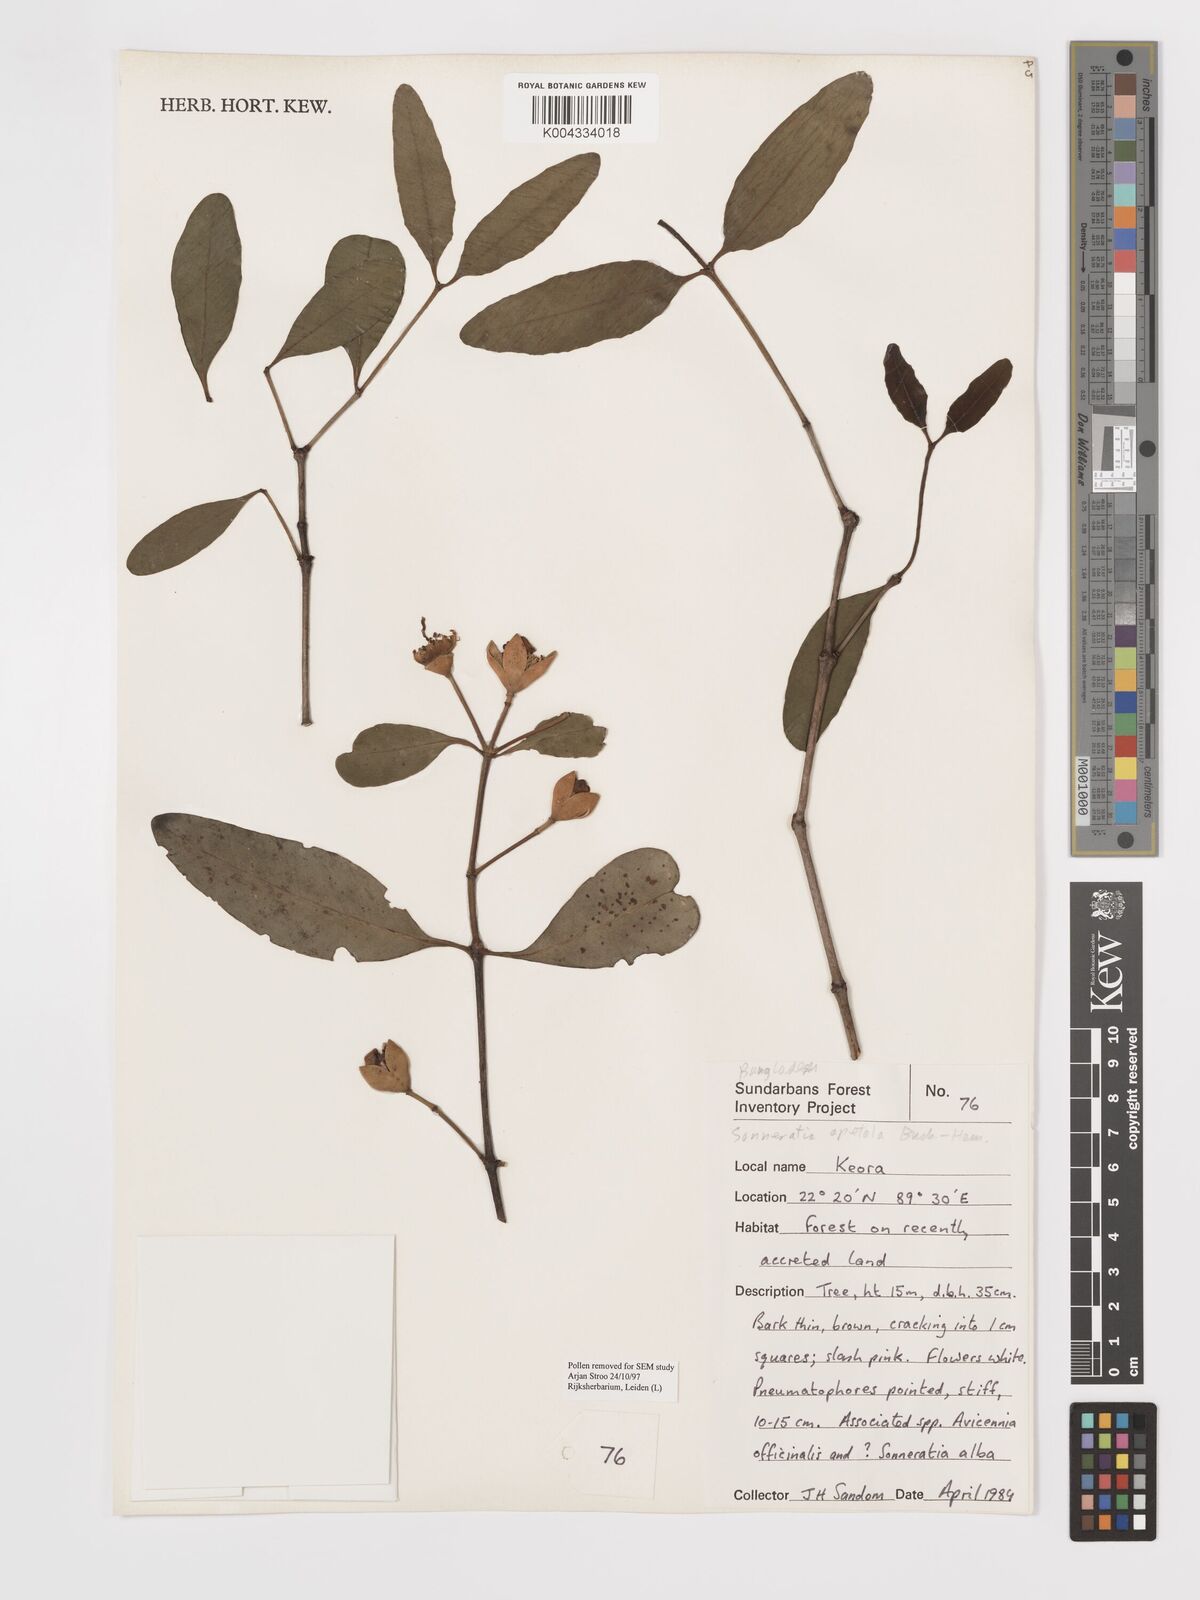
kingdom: Plantae
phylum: Tracheophyta
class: Magnoliopsida
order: Myrtales
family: Lythraceae
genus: Sonneratia
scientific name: Sonneratia apetala
